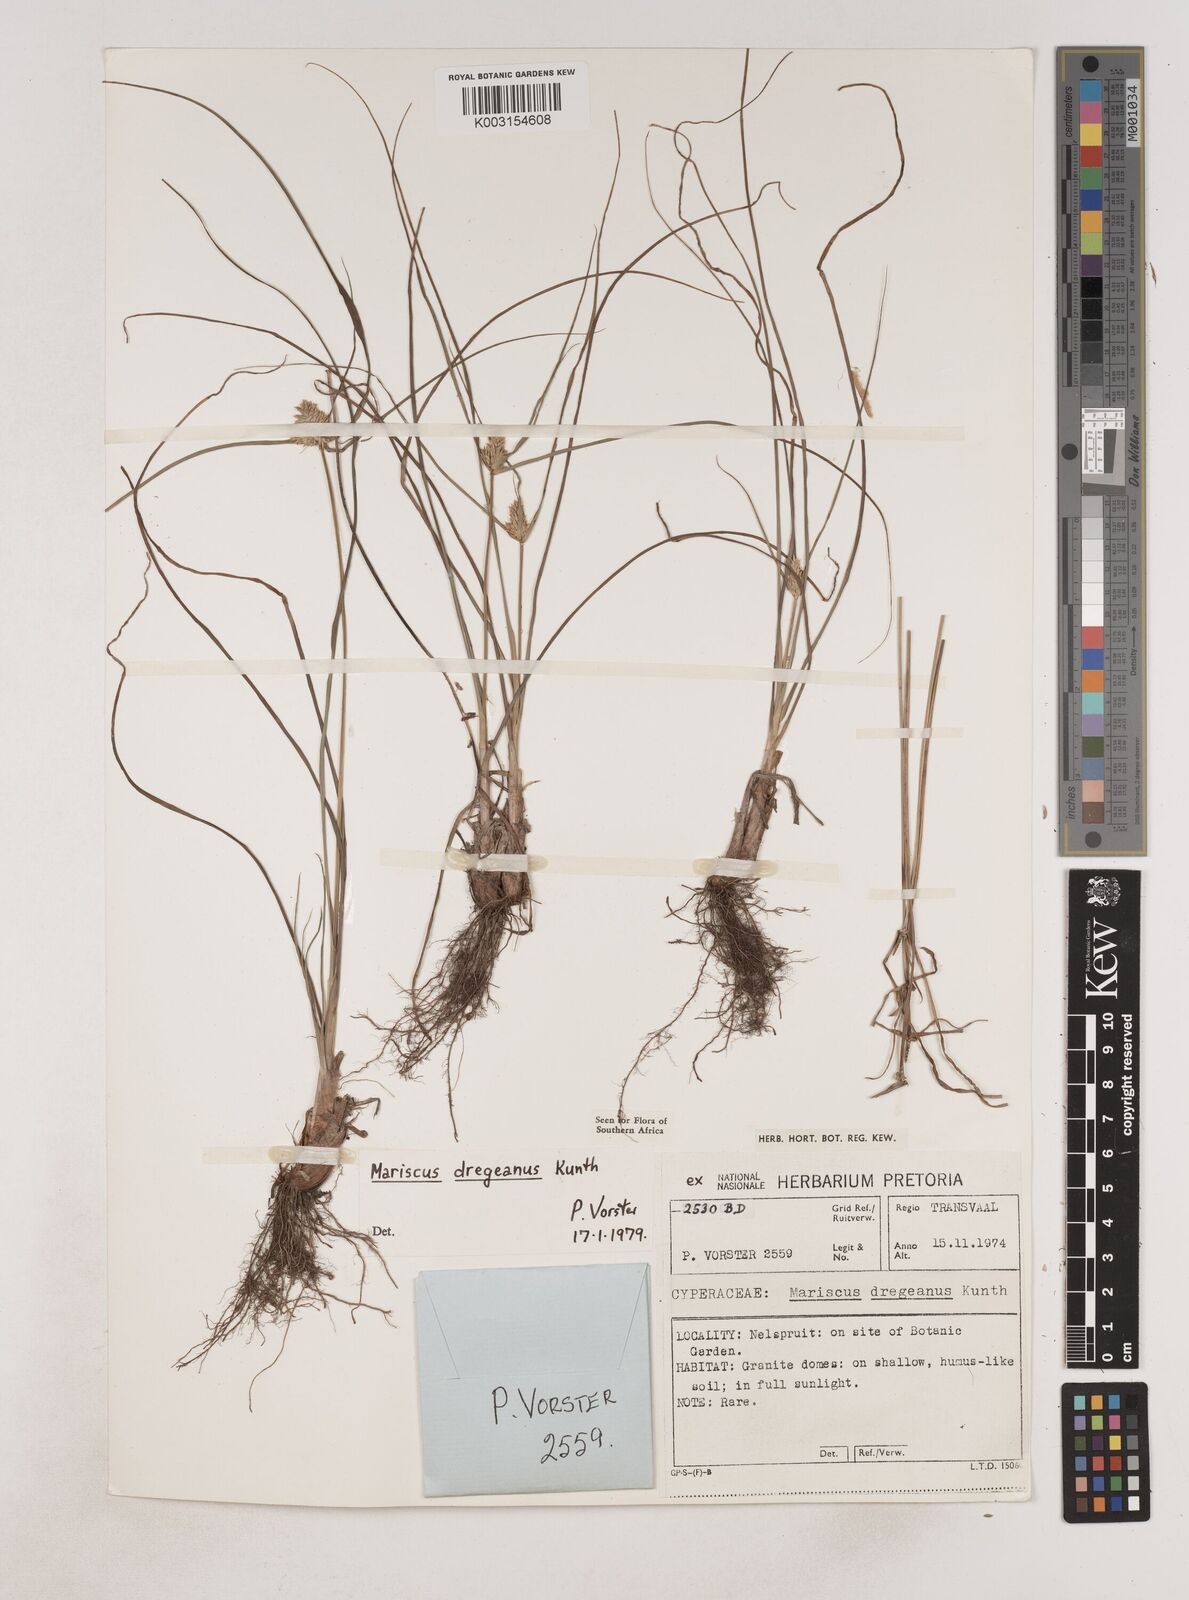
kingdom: Plantae
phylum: Tracheophyta
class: Liliopsida
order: Poales
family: Cyperaceae
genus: Cyperus
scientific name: Cyperus dubius
